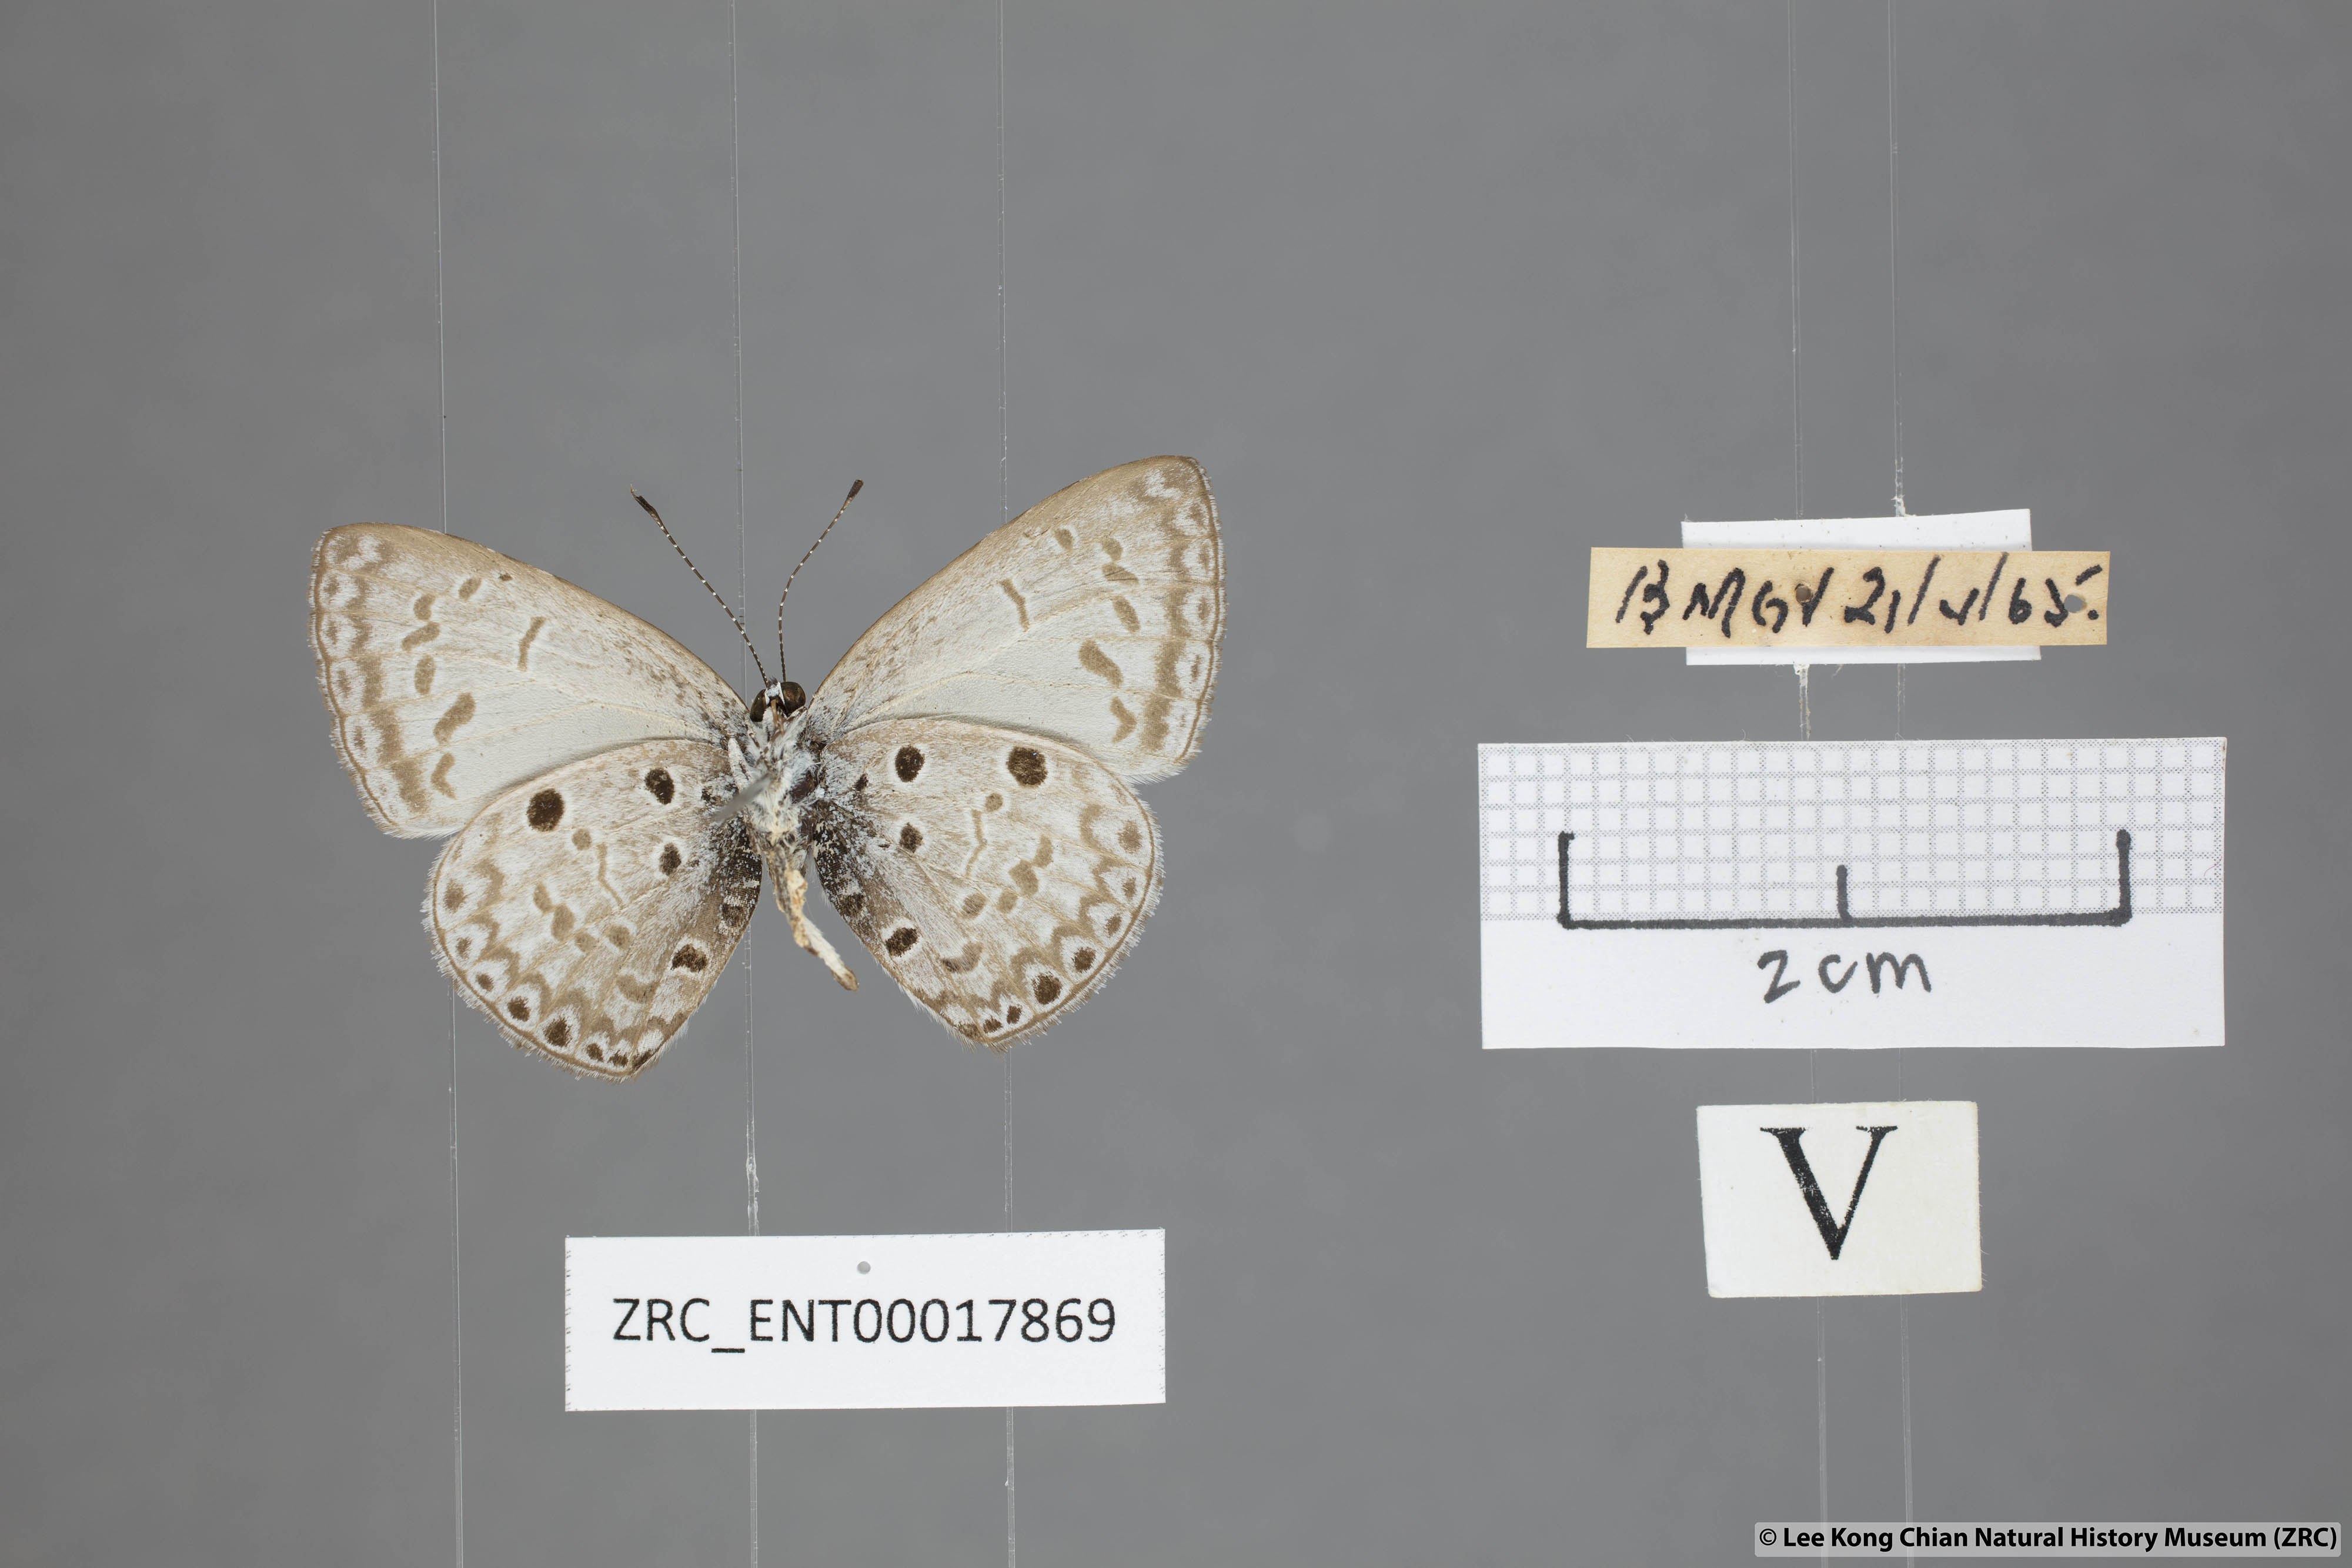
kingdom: Animalia
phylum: Arthropoda
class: Insecta
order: Lepidoptera
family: Lycaenidae
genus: Acytolepis
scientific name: Acytolepis puspa
